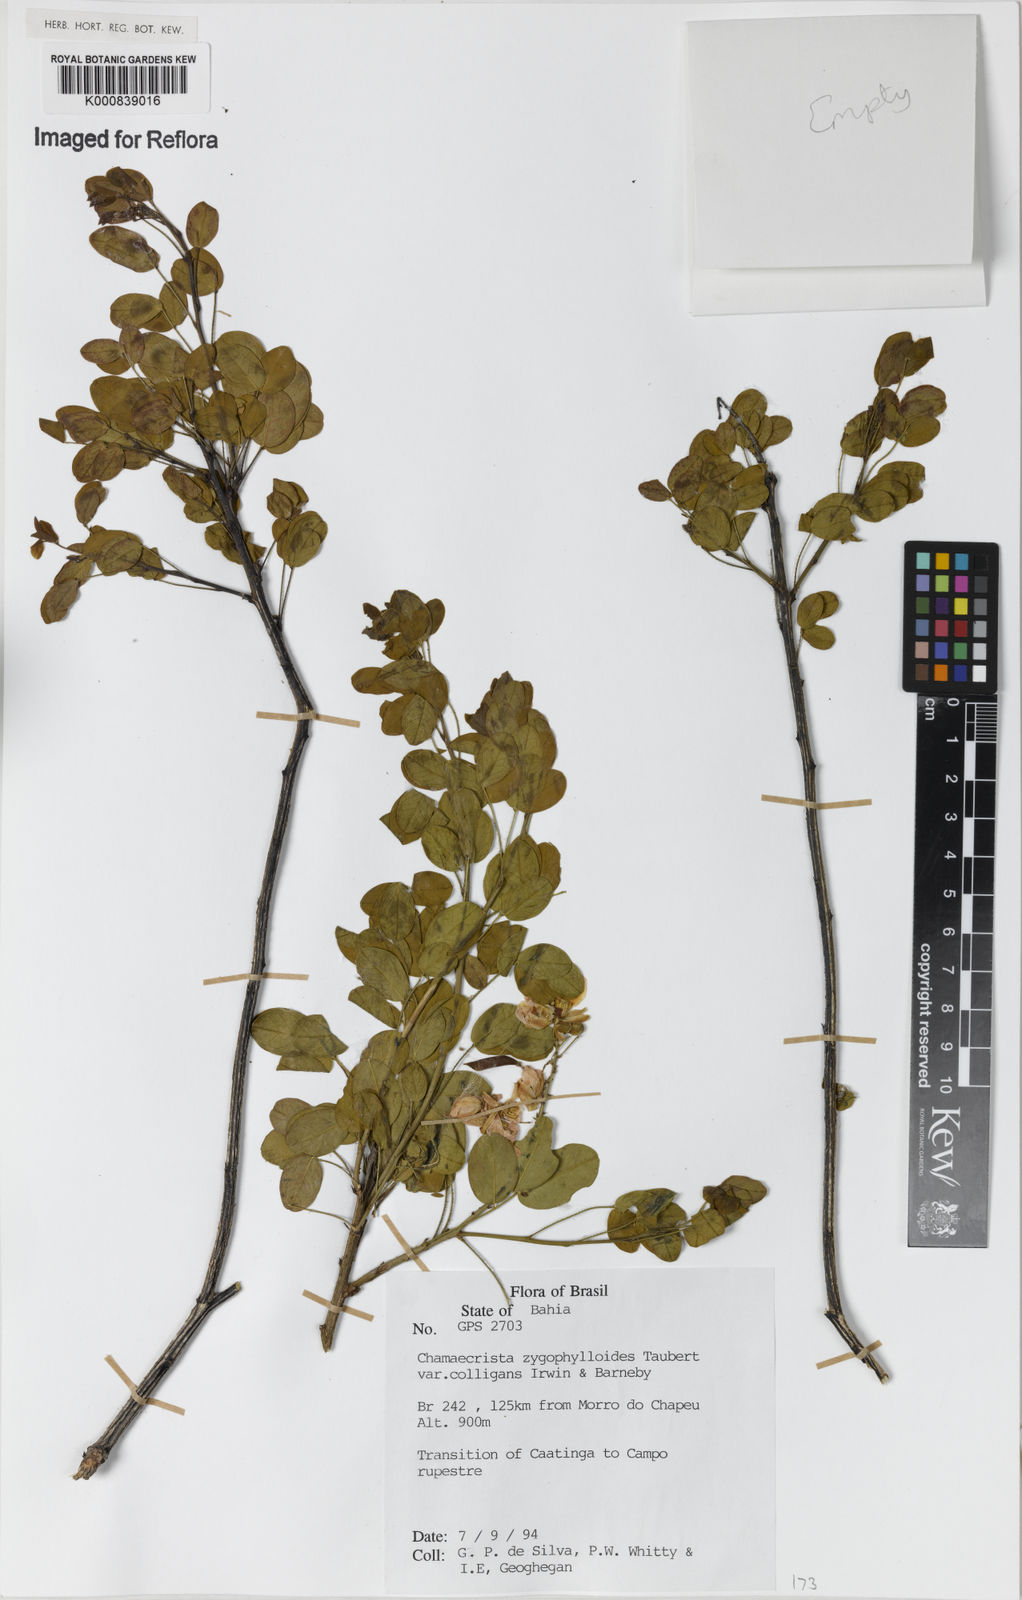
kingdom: Plantae
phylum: Tracheophyta
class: Magnoliopsida
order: Fabales
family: Fabaceae
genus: Chamaecrista
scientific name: Chamaecrista zygophylloides
